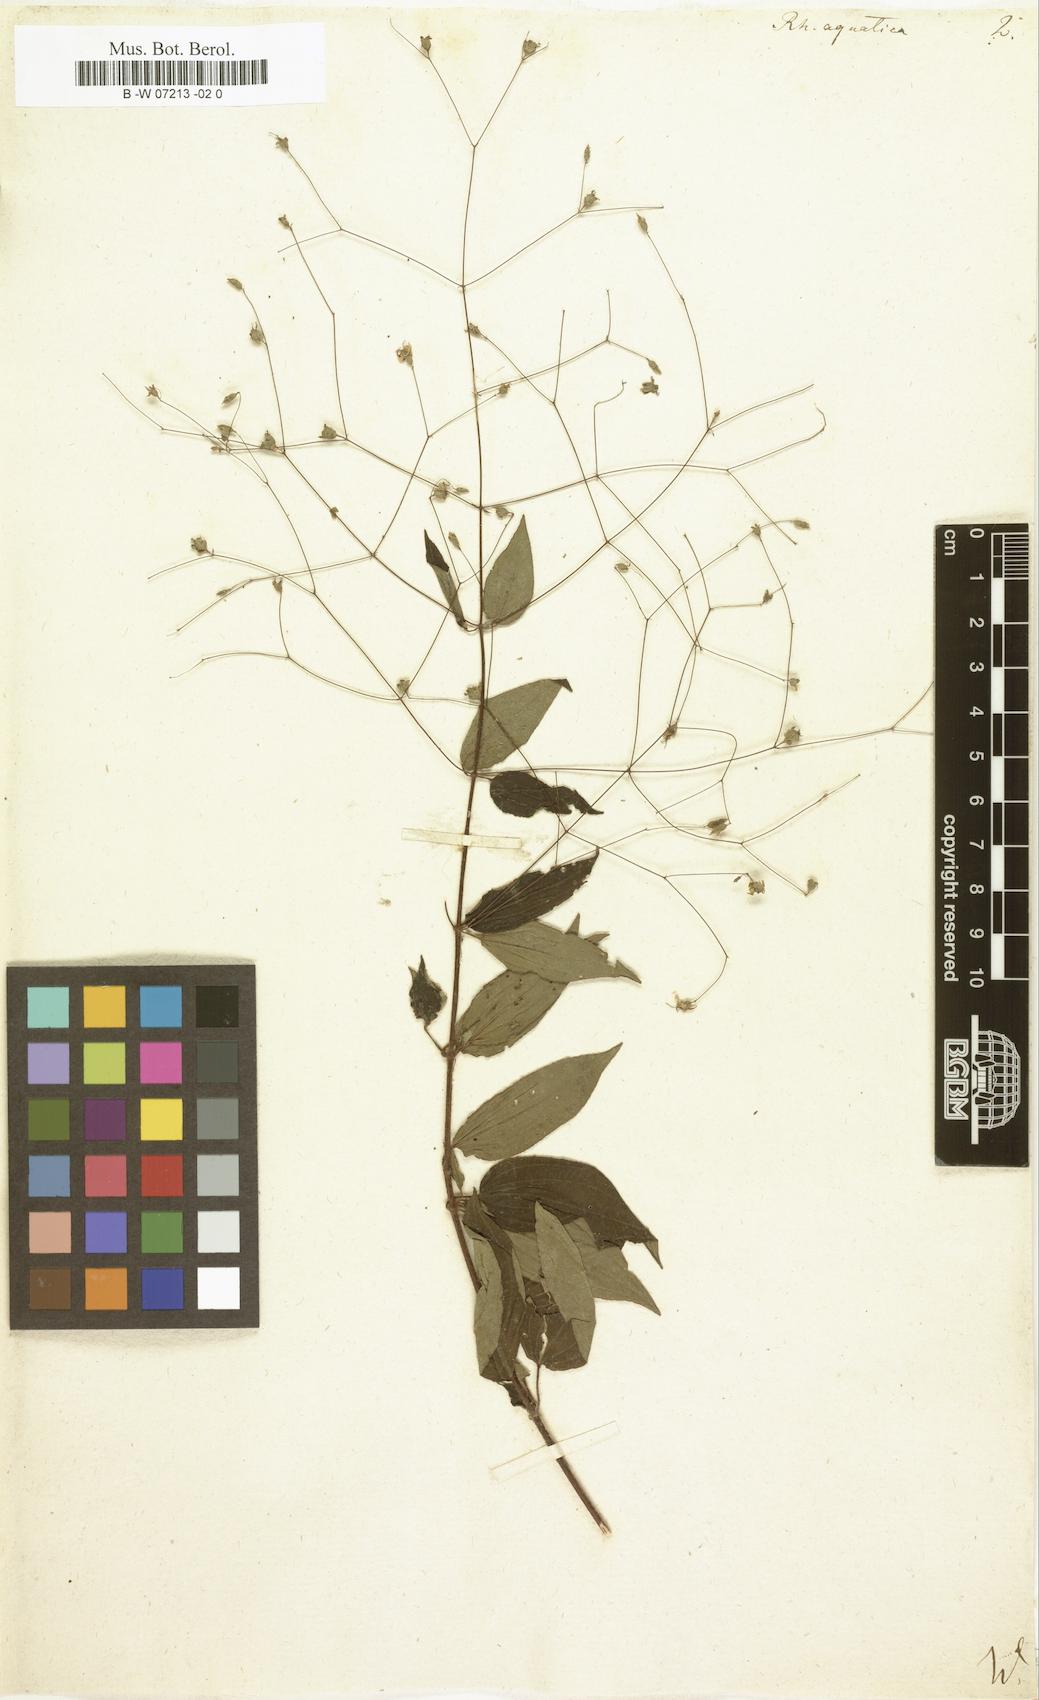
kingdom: Plantae
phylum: Tracheophyta
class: Magnoliopsida
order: Myrtales
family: Melastomataceae
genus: Nepsera
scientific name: Nepsera aquatica
